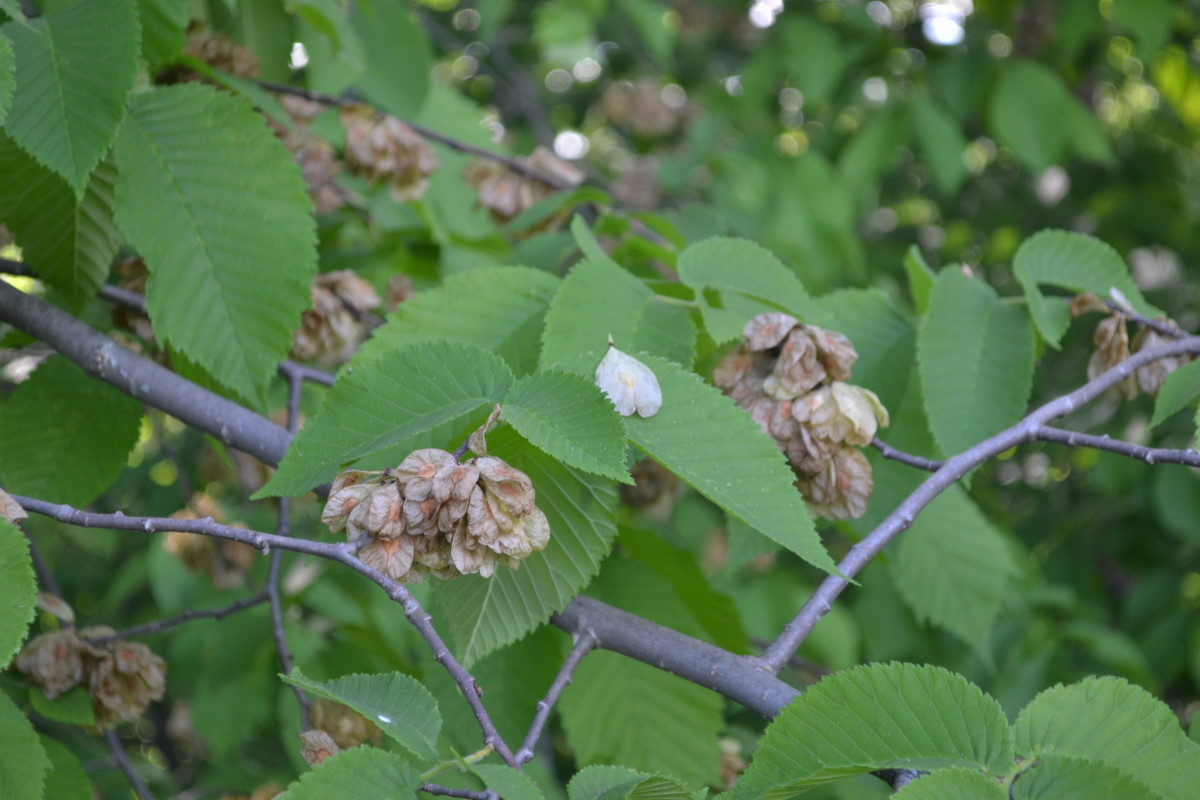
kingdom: Plantae
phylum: Tracheophyta
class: Magnoliopsida
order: Rosales
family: Ulmaceae
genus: Ulmus
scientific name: Ulmus glabra
